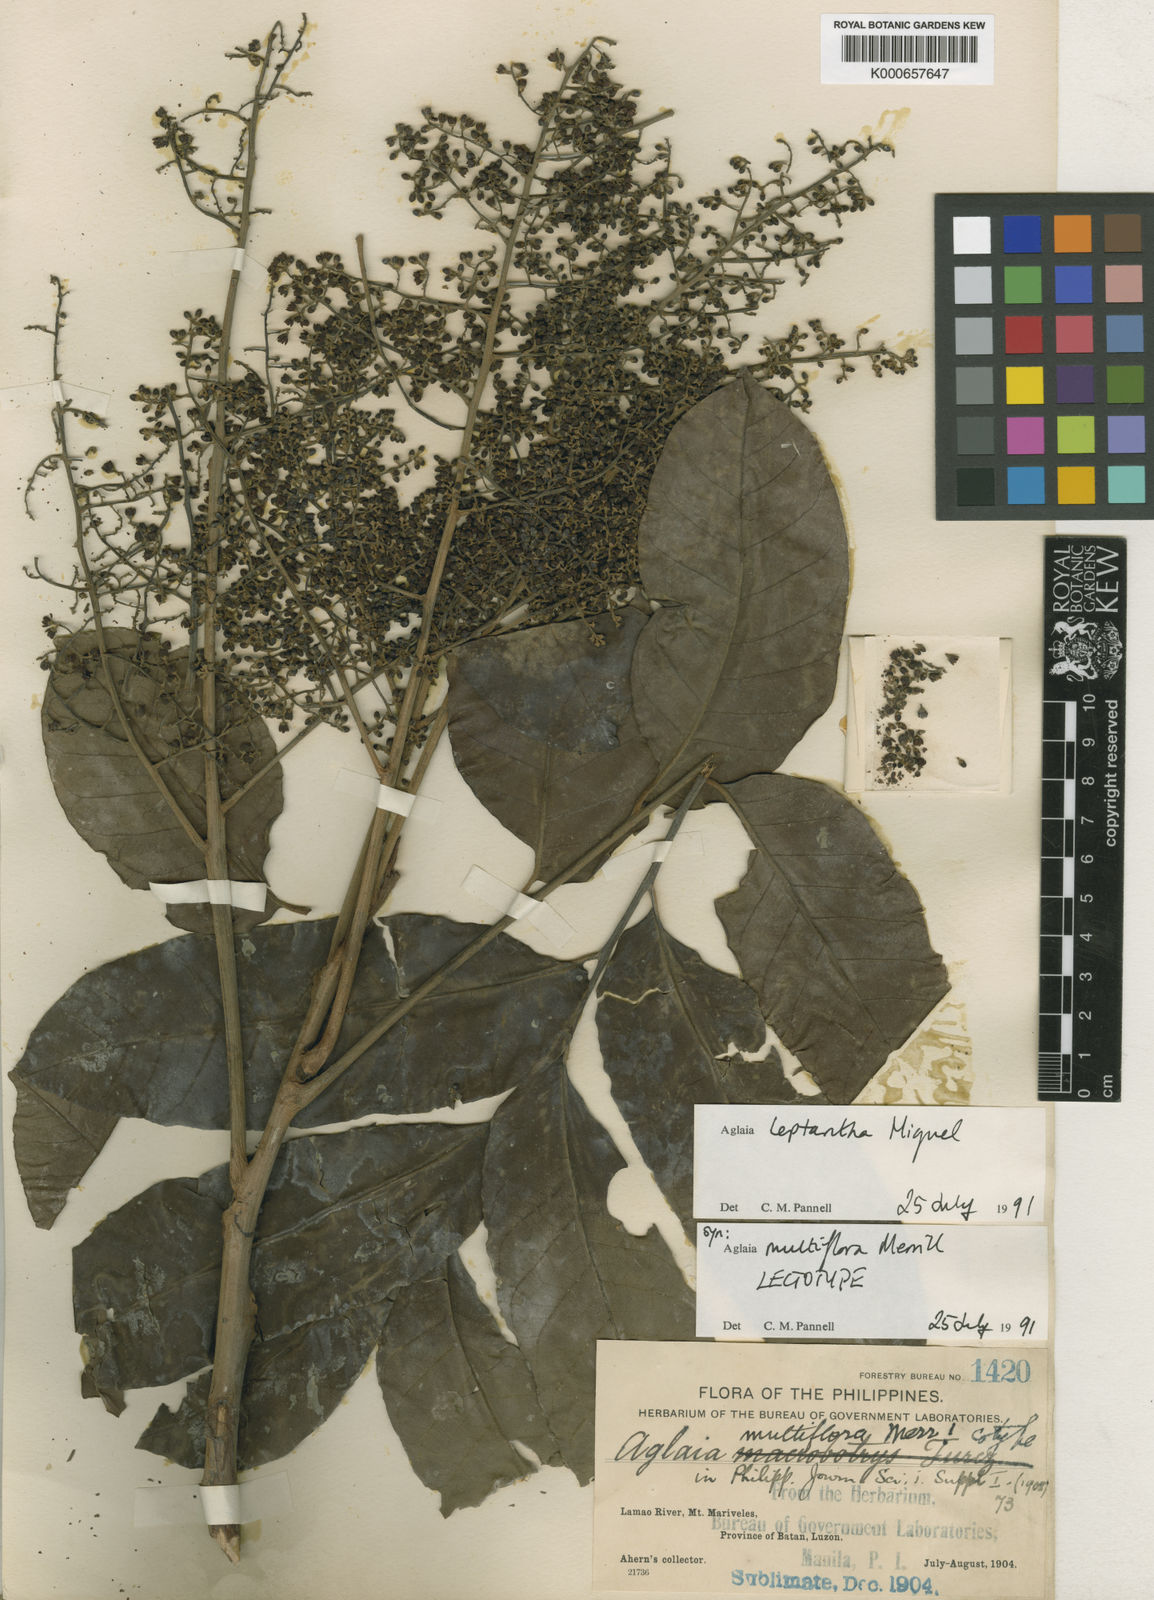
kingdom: Plantae
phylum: Tracheophyta
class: Magnoliopsida
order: Sapindales
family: Meliaceae
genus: Aglaia
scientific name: Aglaia leptantha
